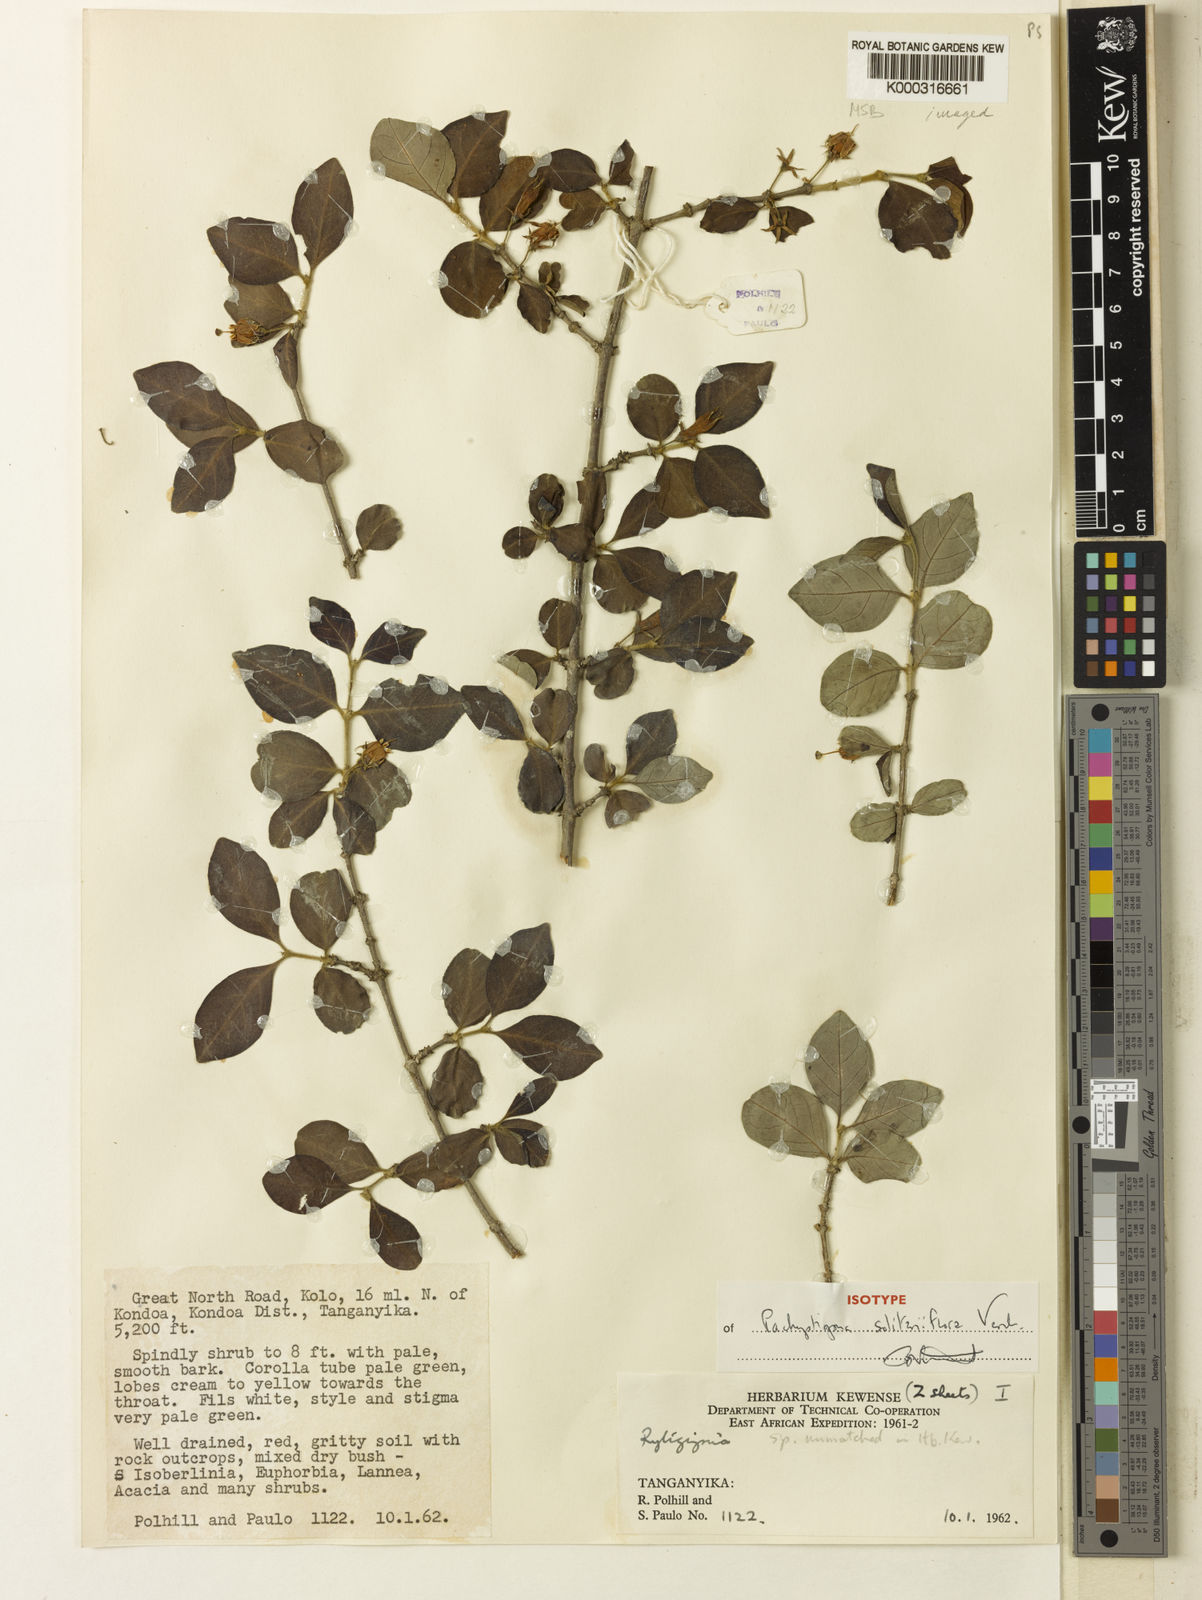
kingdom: Plantae
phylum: Tracheophyta
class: Magnoliopsida
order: Gentianales
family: Rubiaceae
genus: Vangueria
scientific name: Vangueria solitariiflora
